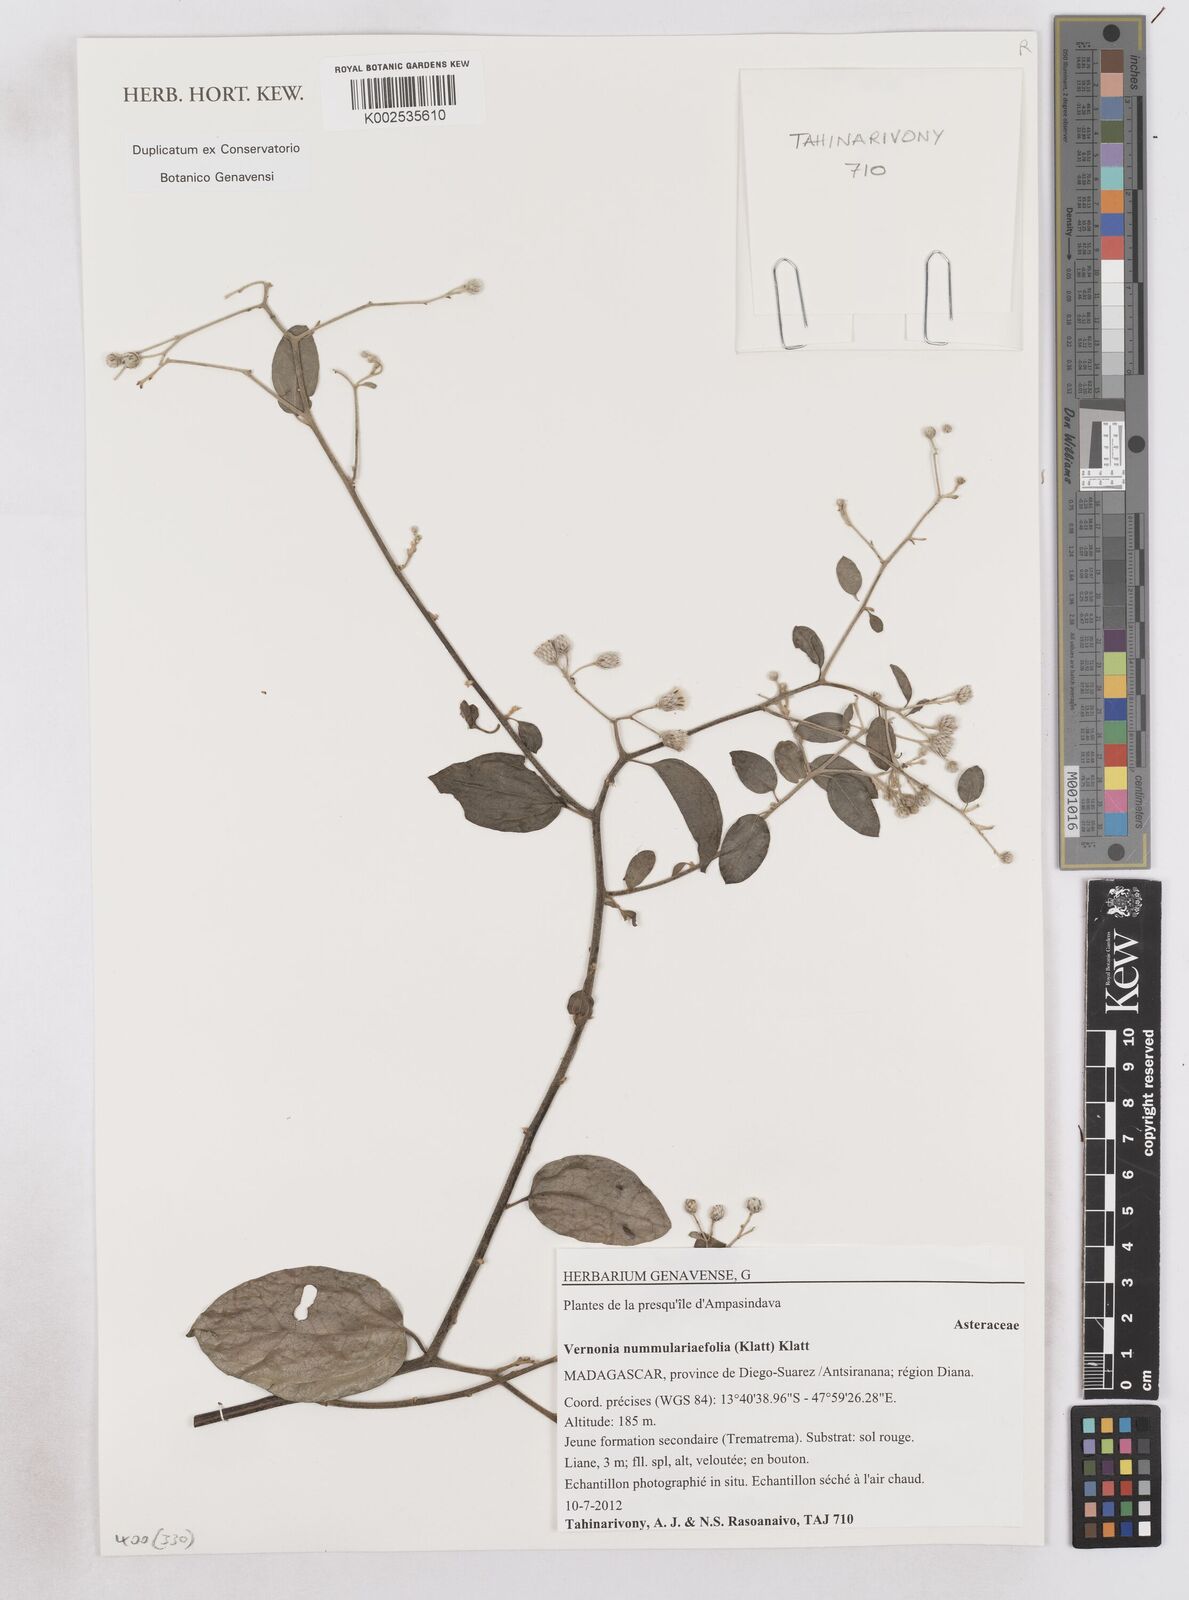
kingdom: Plantae
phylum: Tracheophyta
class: Magnoliopsida
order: Asterales
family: Asteraceae
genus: Distephanus
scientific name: Distephanus nummulariifolius
